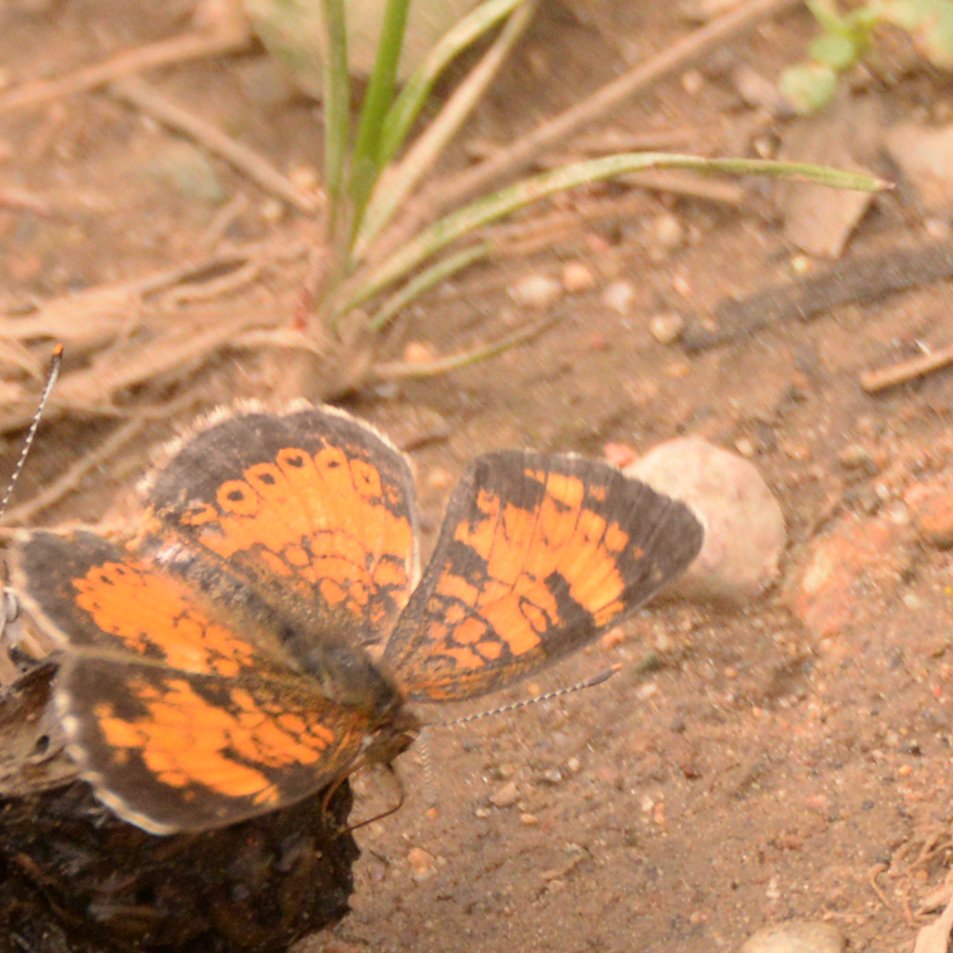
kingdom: Animalia
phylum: Arthropoda
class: Insecta
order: Lepidoptera
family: Nymphalidae
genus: Phyciodes
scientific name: Phyciodes tharos
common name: Northern Crescent
